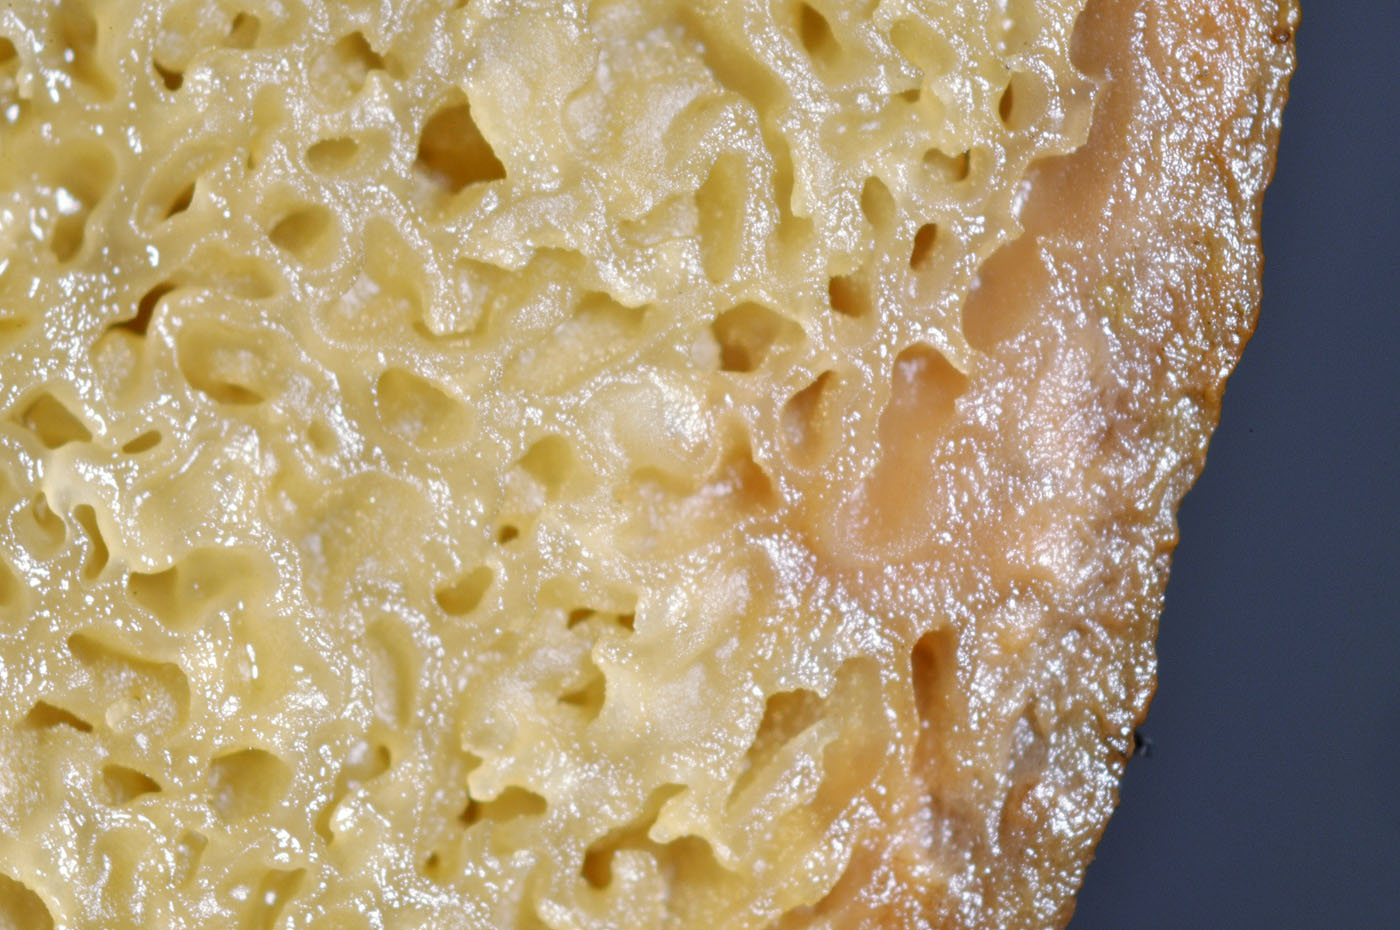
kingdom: Fungi
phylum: Basidiomycota
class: Agaricomycetes
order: Boletales
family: Rhizopogonaceae
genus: Rhizopogon
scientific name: Rhizopogon pseudoroseolus
